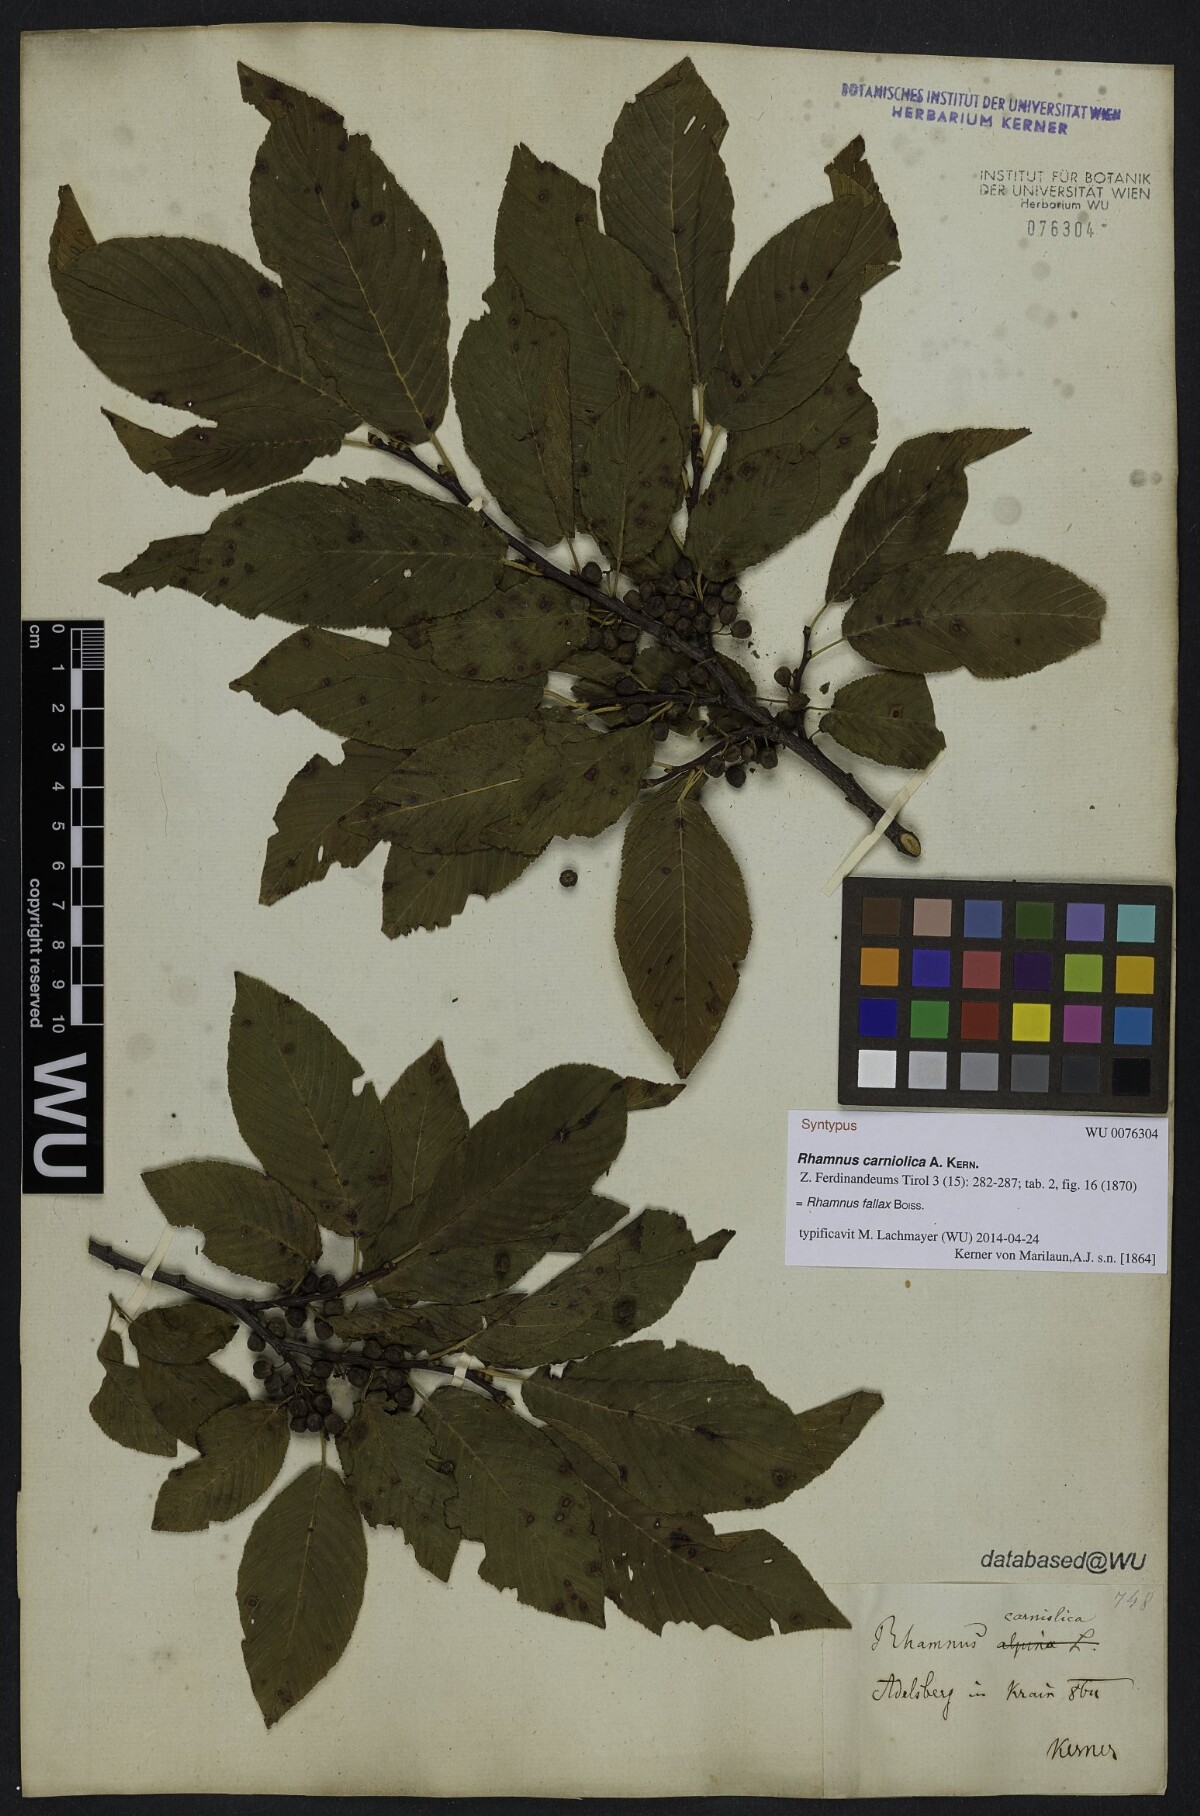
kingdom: Plantae
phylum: Tracheophyta
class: Magnoliopsida
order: Rosales
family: Rhamnaceae
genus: Rhamnus
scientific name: Rhamnus saxatilis
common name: Rock buckthorn
